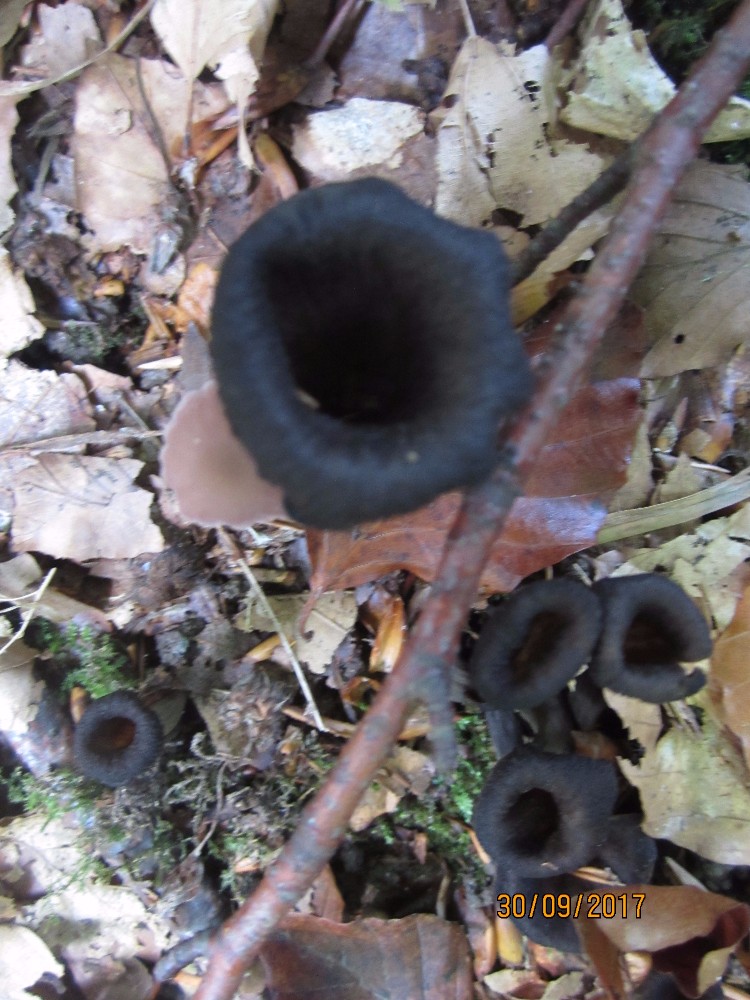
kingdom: Fungi
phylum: Basidiomycota
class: Agaricomycetes
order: Cantharellales
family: Hydnaceae
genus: Craterellus
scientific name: Craterellus cornucopioides
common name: trompetsvamp
